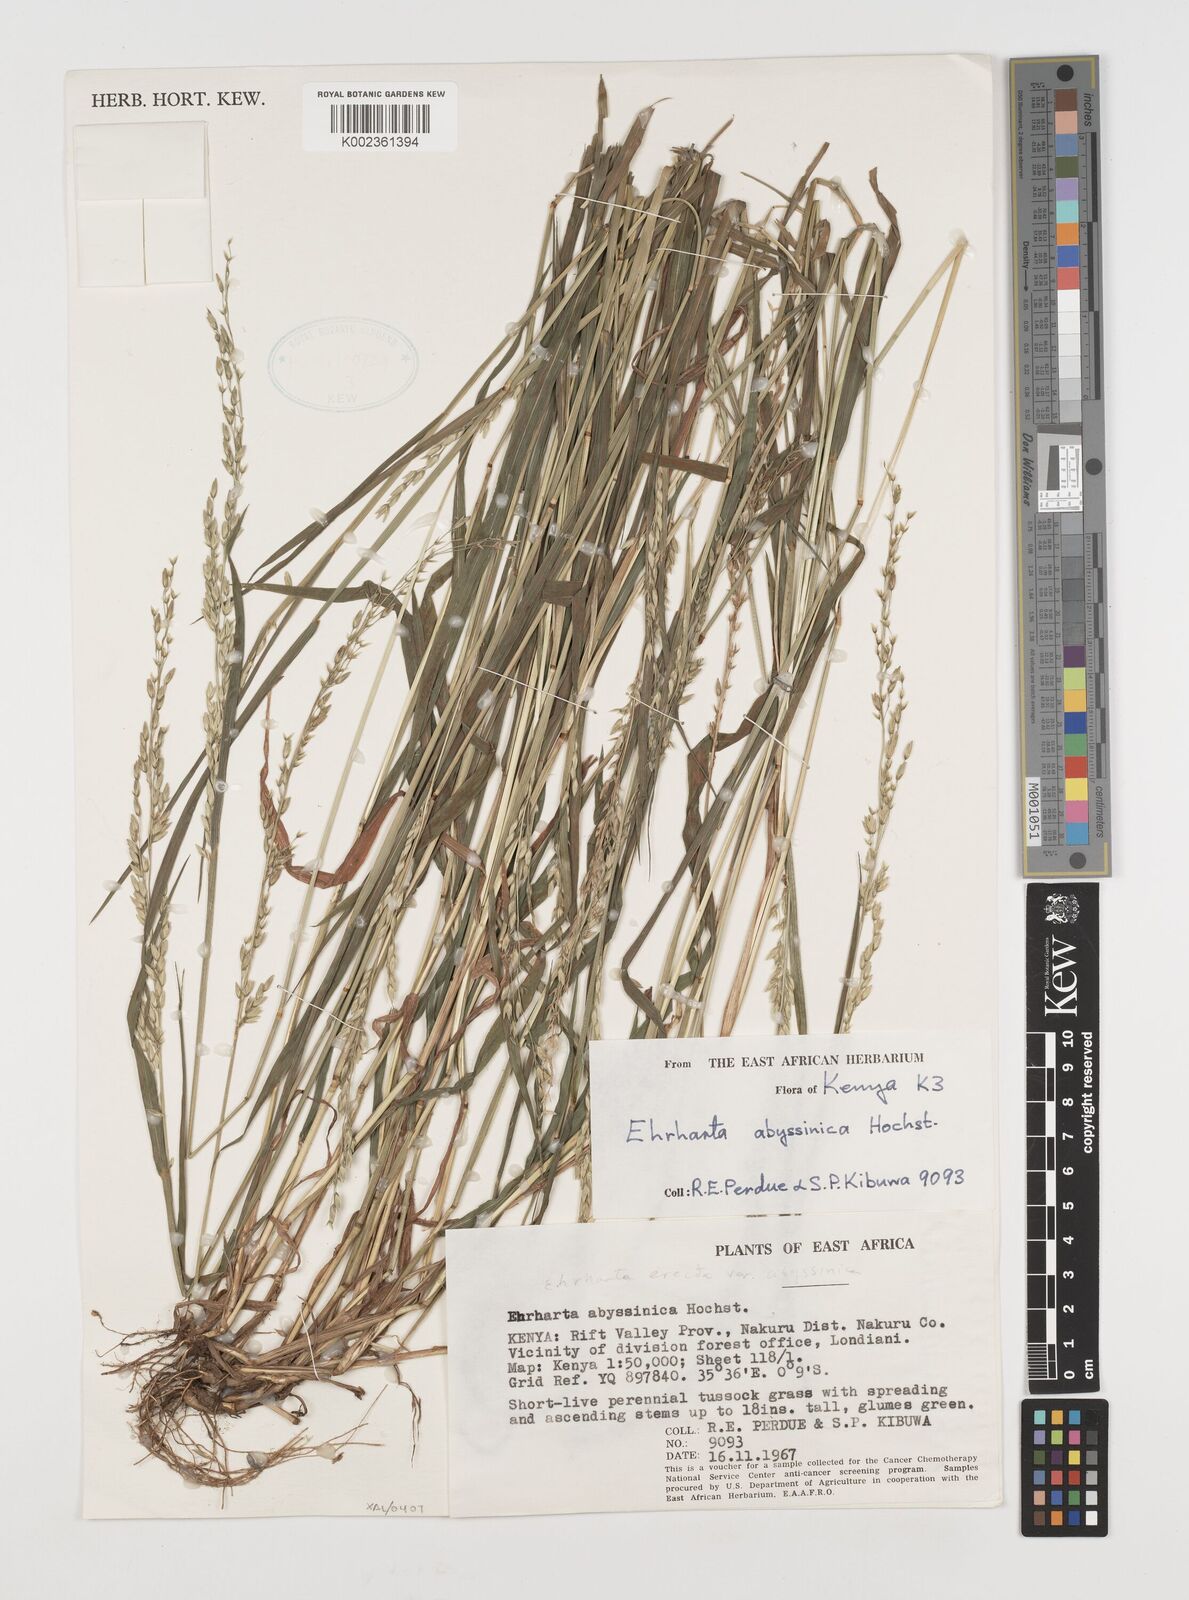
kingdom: Plantae
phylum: Tracheophyta
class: Liliopsida
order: Poales
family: Poaceae
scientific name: Poaceae
